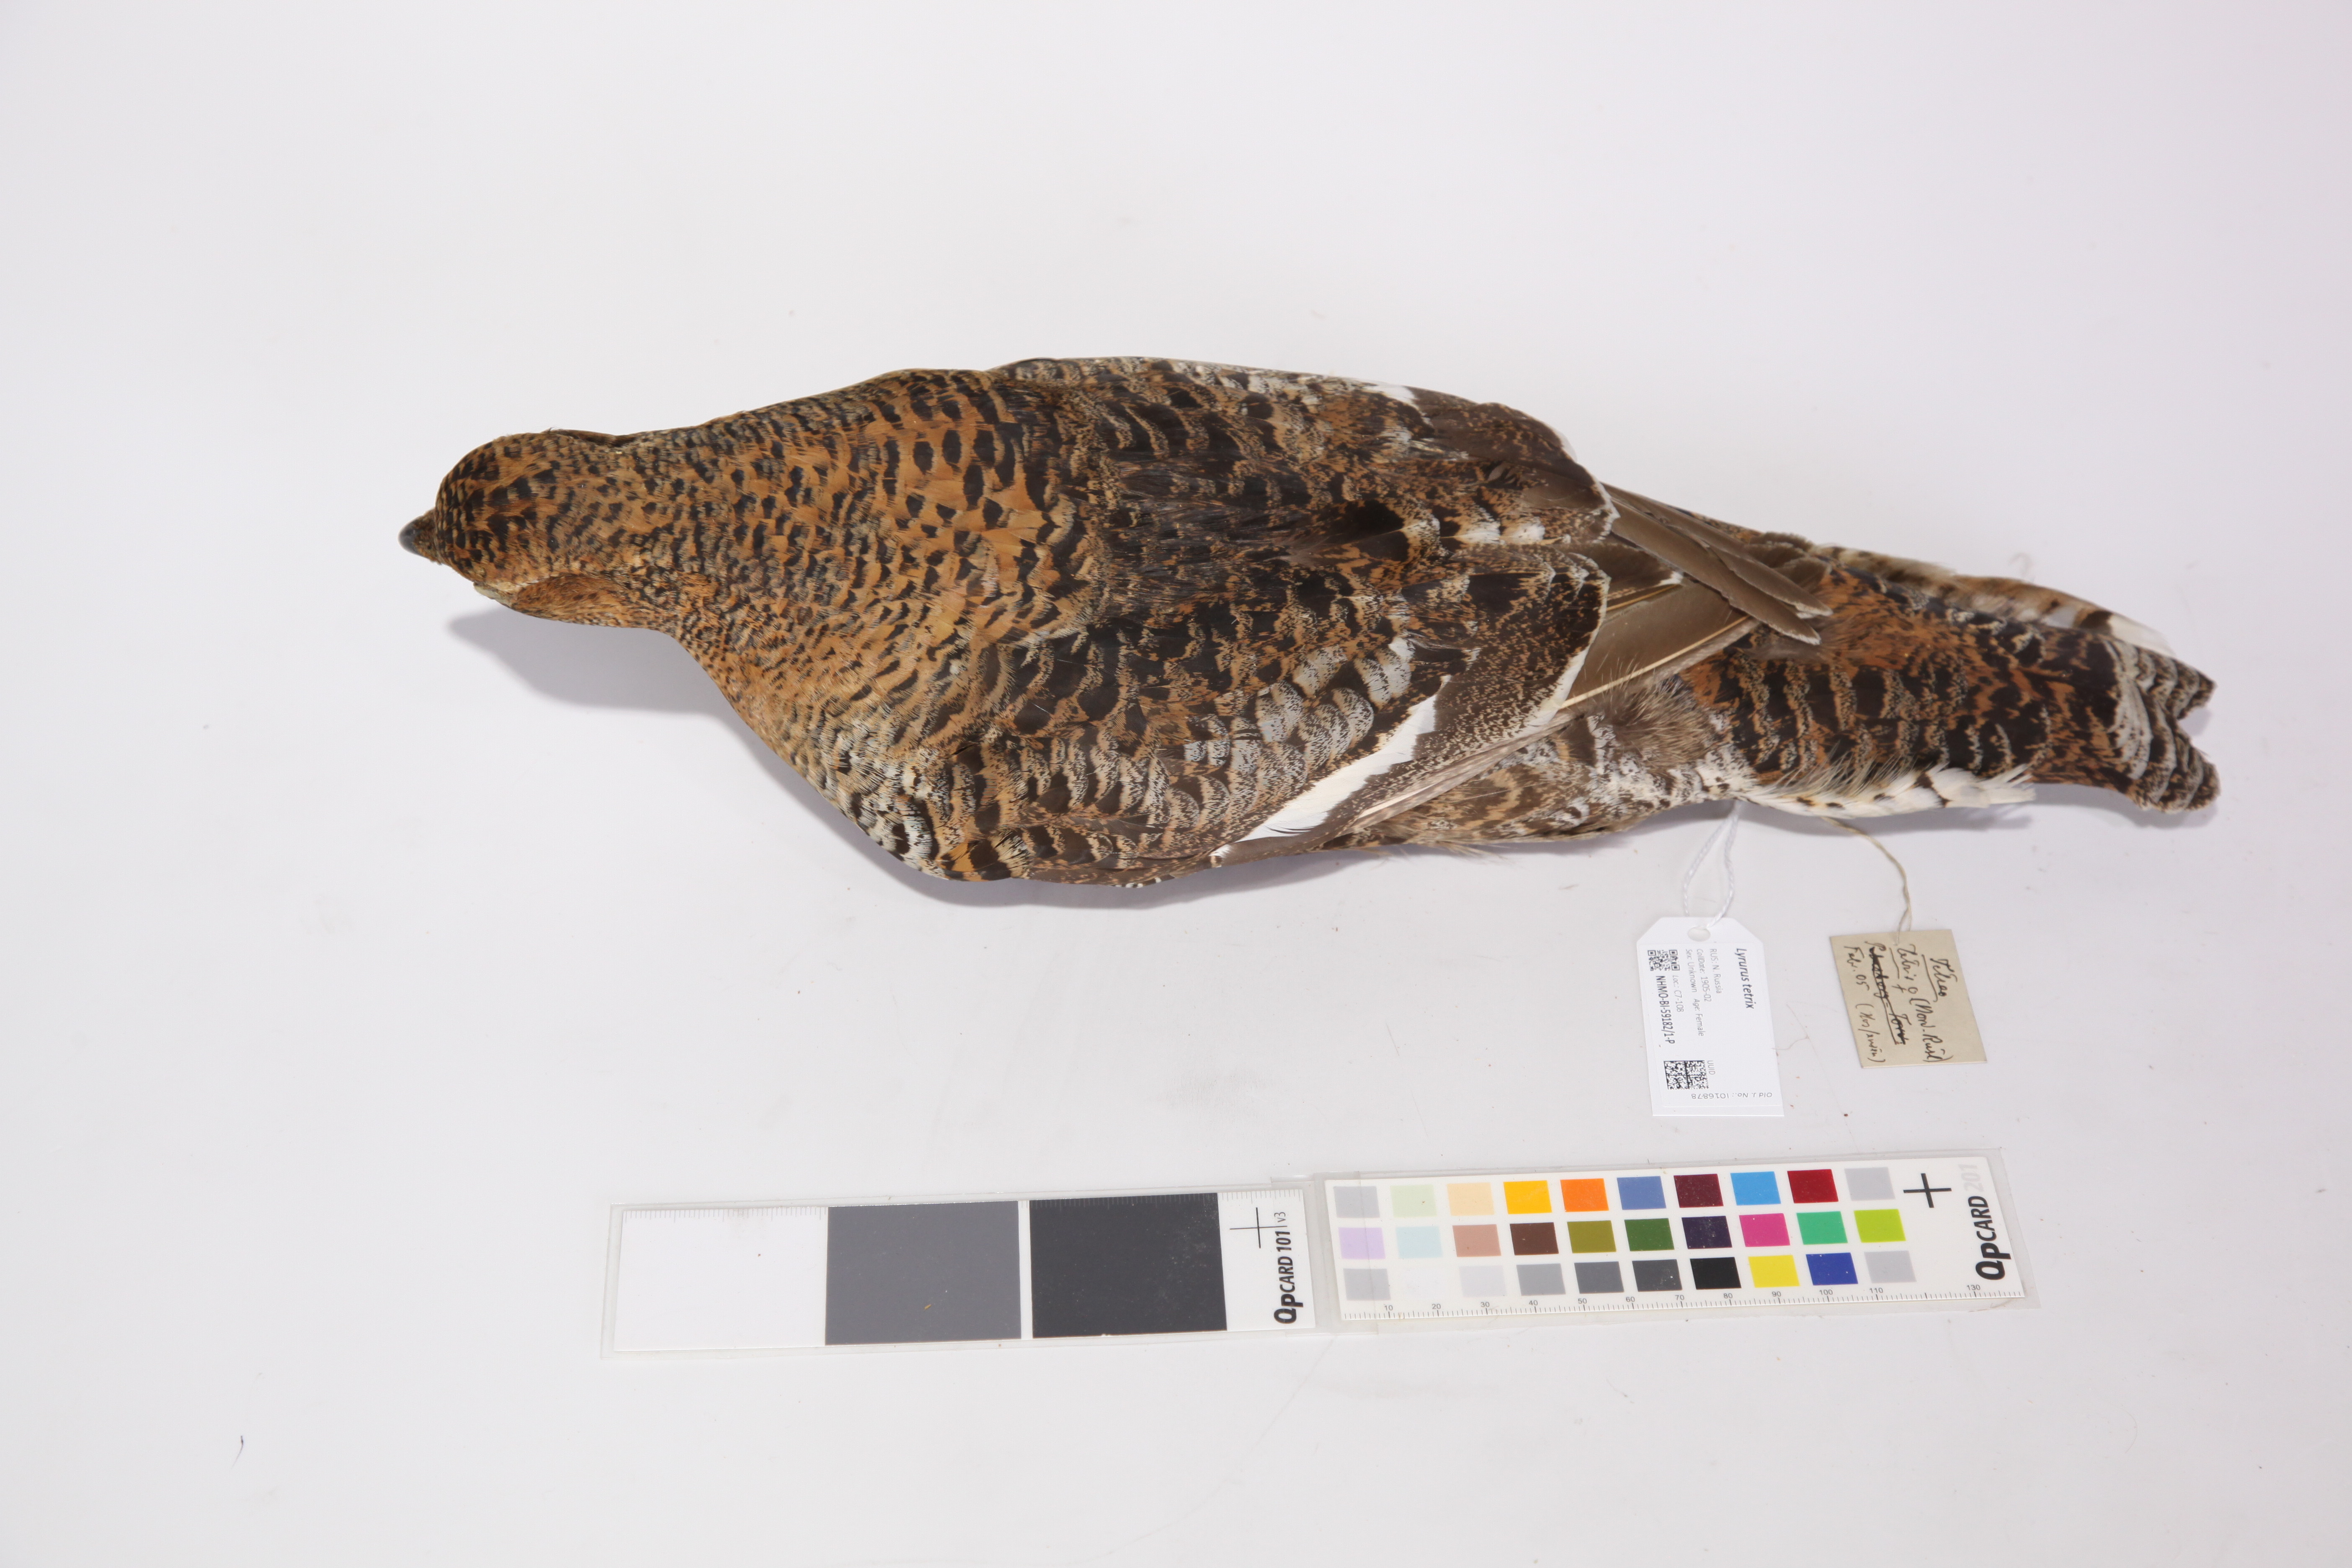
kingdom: Animalia
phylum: Chordata
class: Aves
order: Galliformes
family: Phasianidae
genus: Lyrurus
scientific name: Lyrurus tetrix
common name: Black grouse
